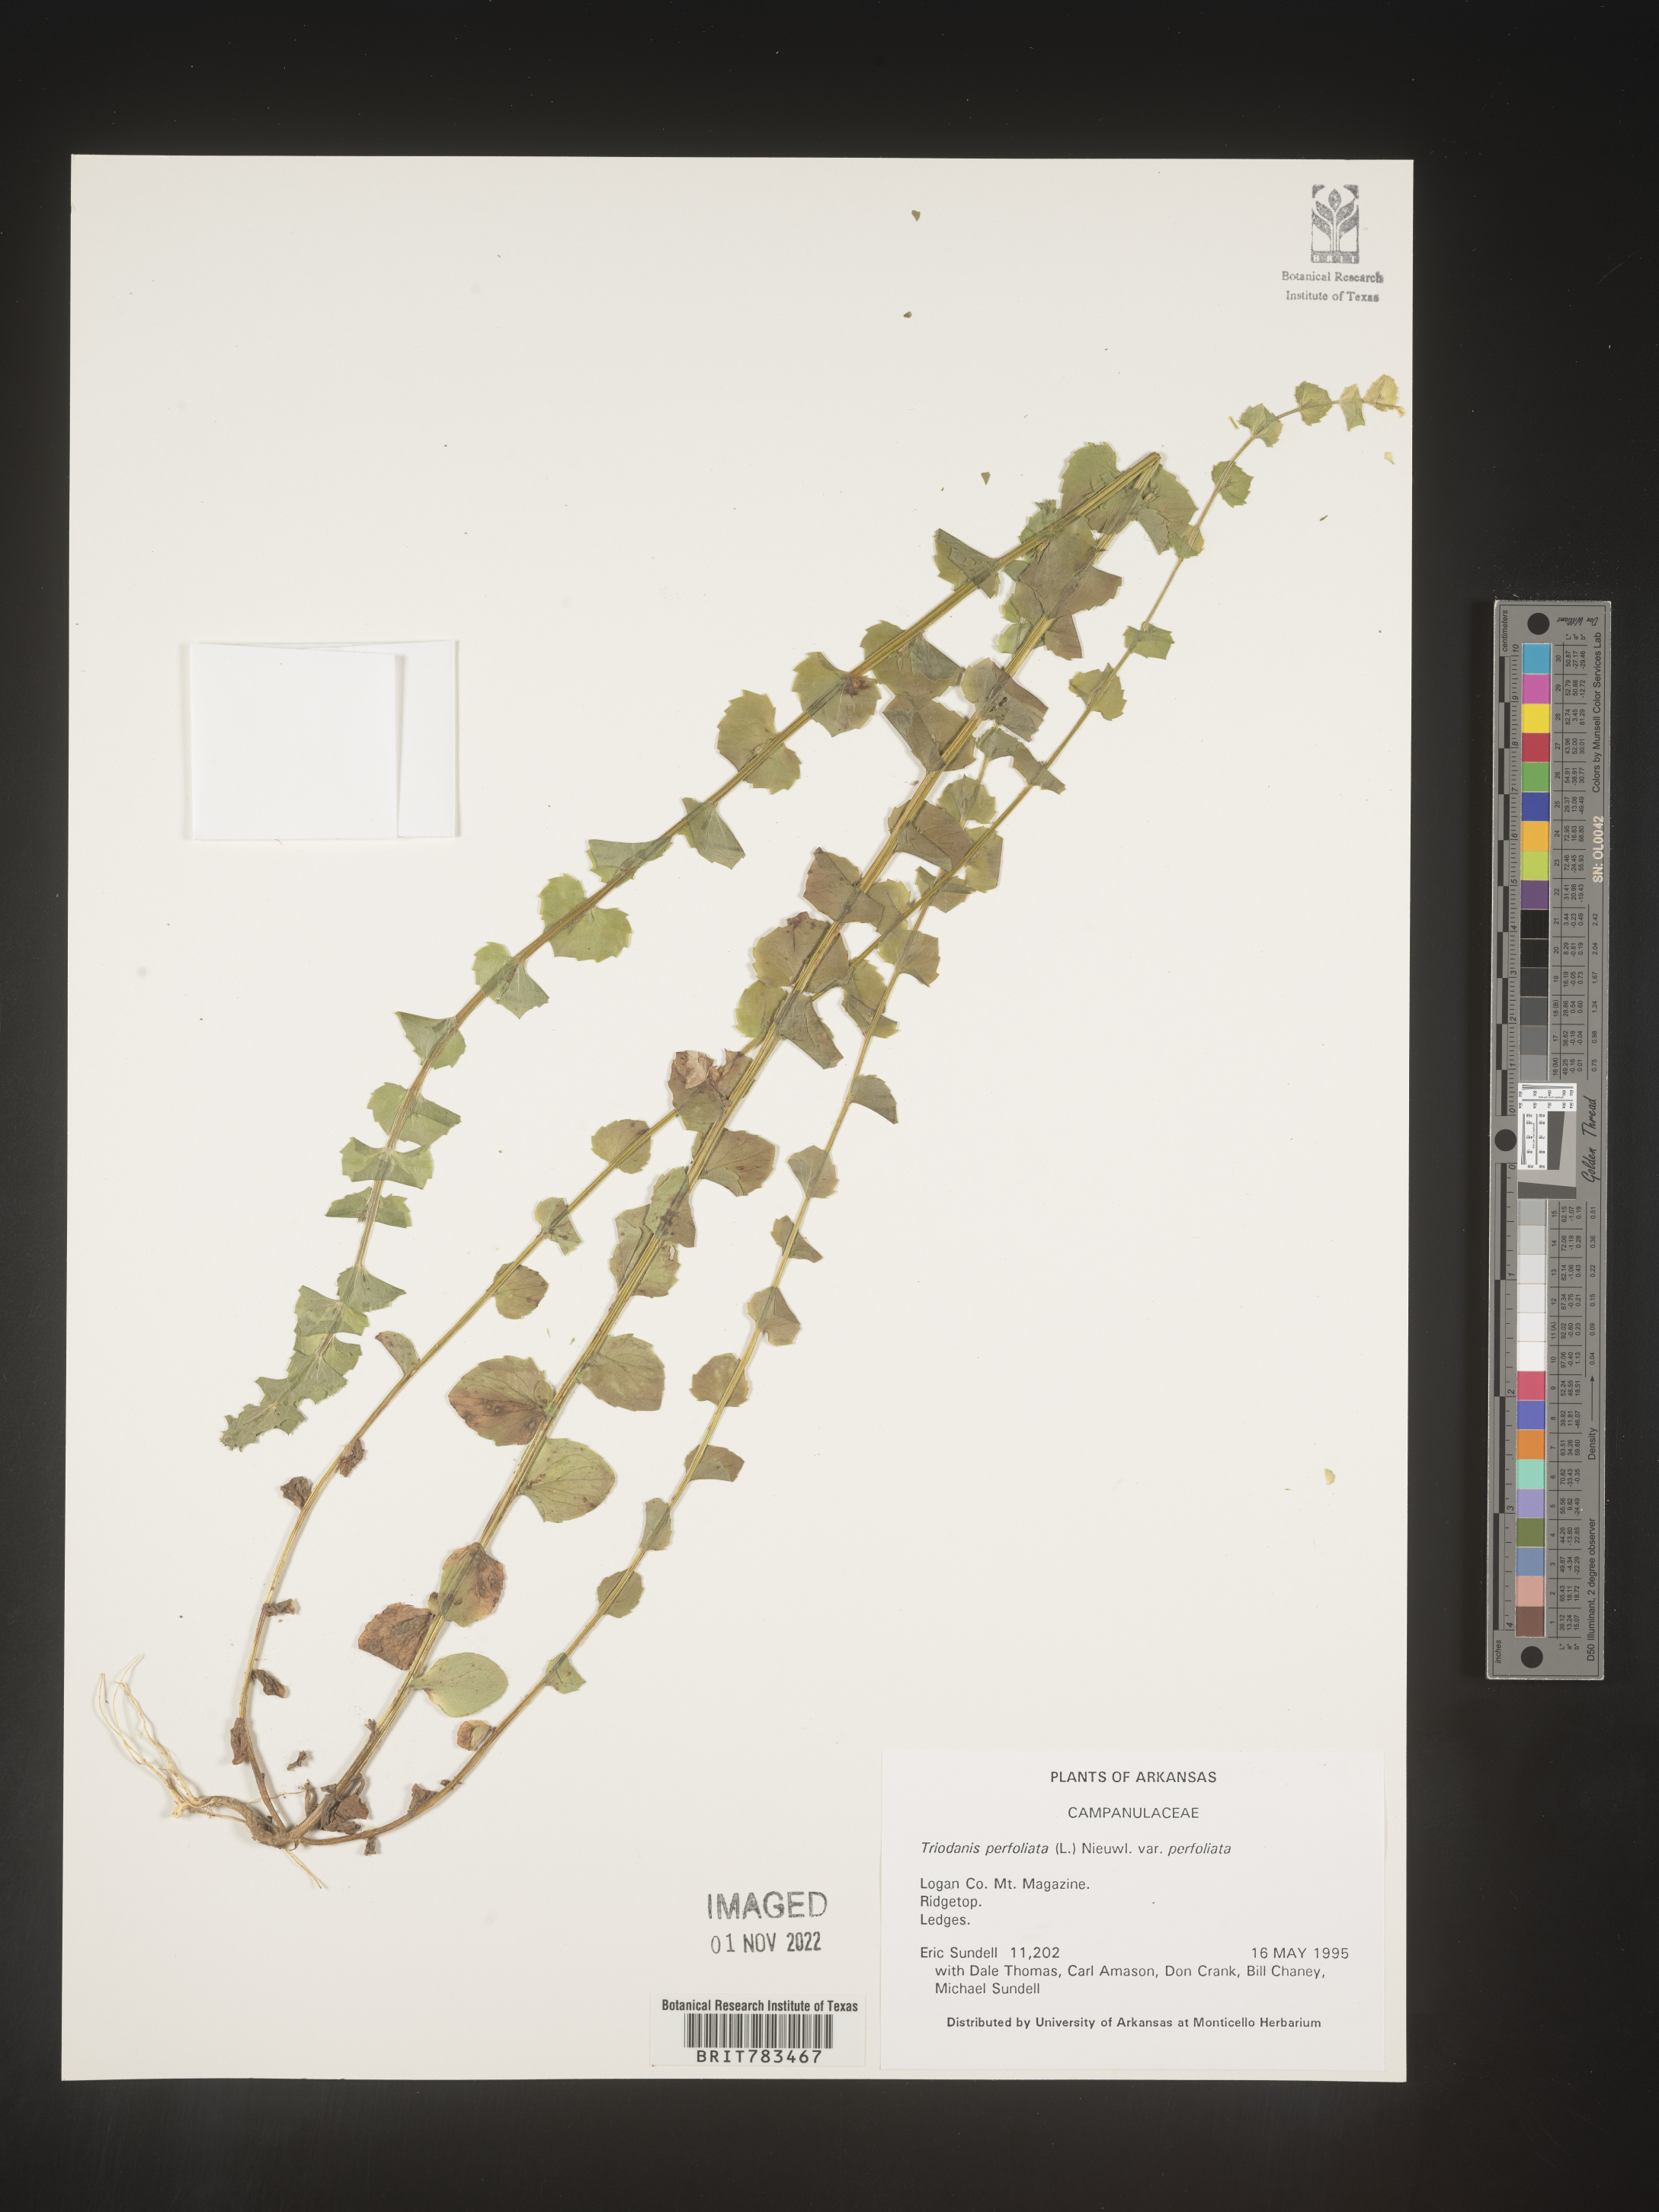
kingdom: Plantae
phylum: Tracheophyta
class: Magnoliopsida
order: Asterales
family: Campanulaceae
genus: Triodanis
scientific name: Triodanis perfoliata
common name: Clasping venus' looking-glass
